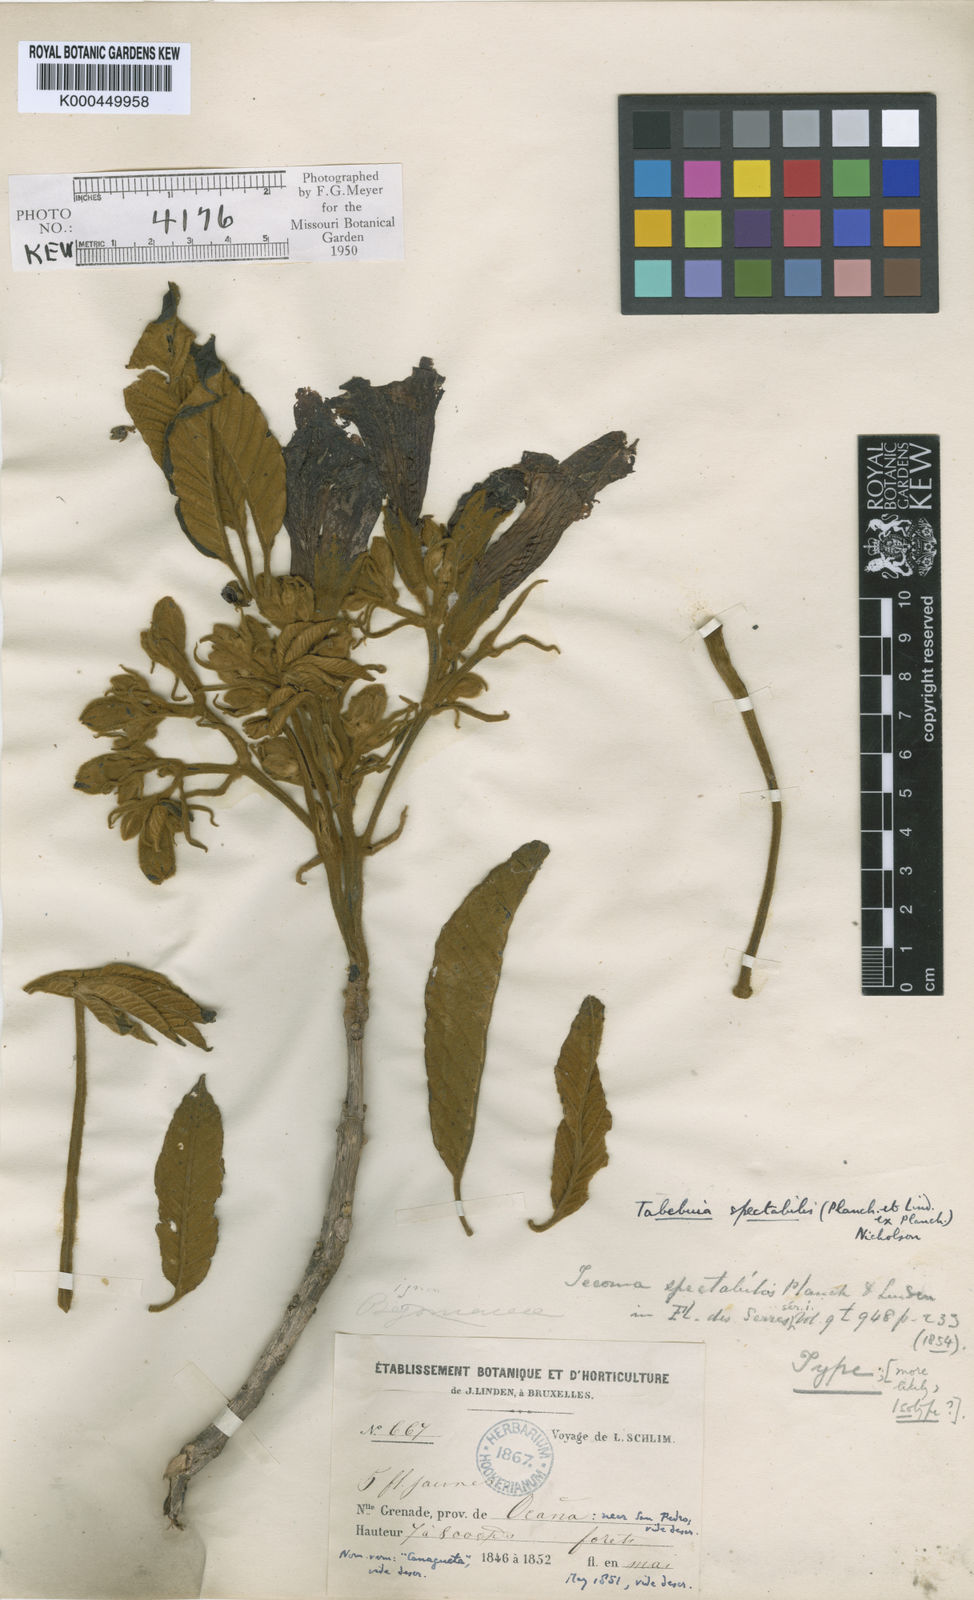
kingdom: Plantae
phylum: Tracheophyta
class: Magnoliopsida
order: Lamiales
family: Bignoniaceae
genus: Handroanthus
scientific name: Handroanthus chrysanthus
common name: Trumpet trees
